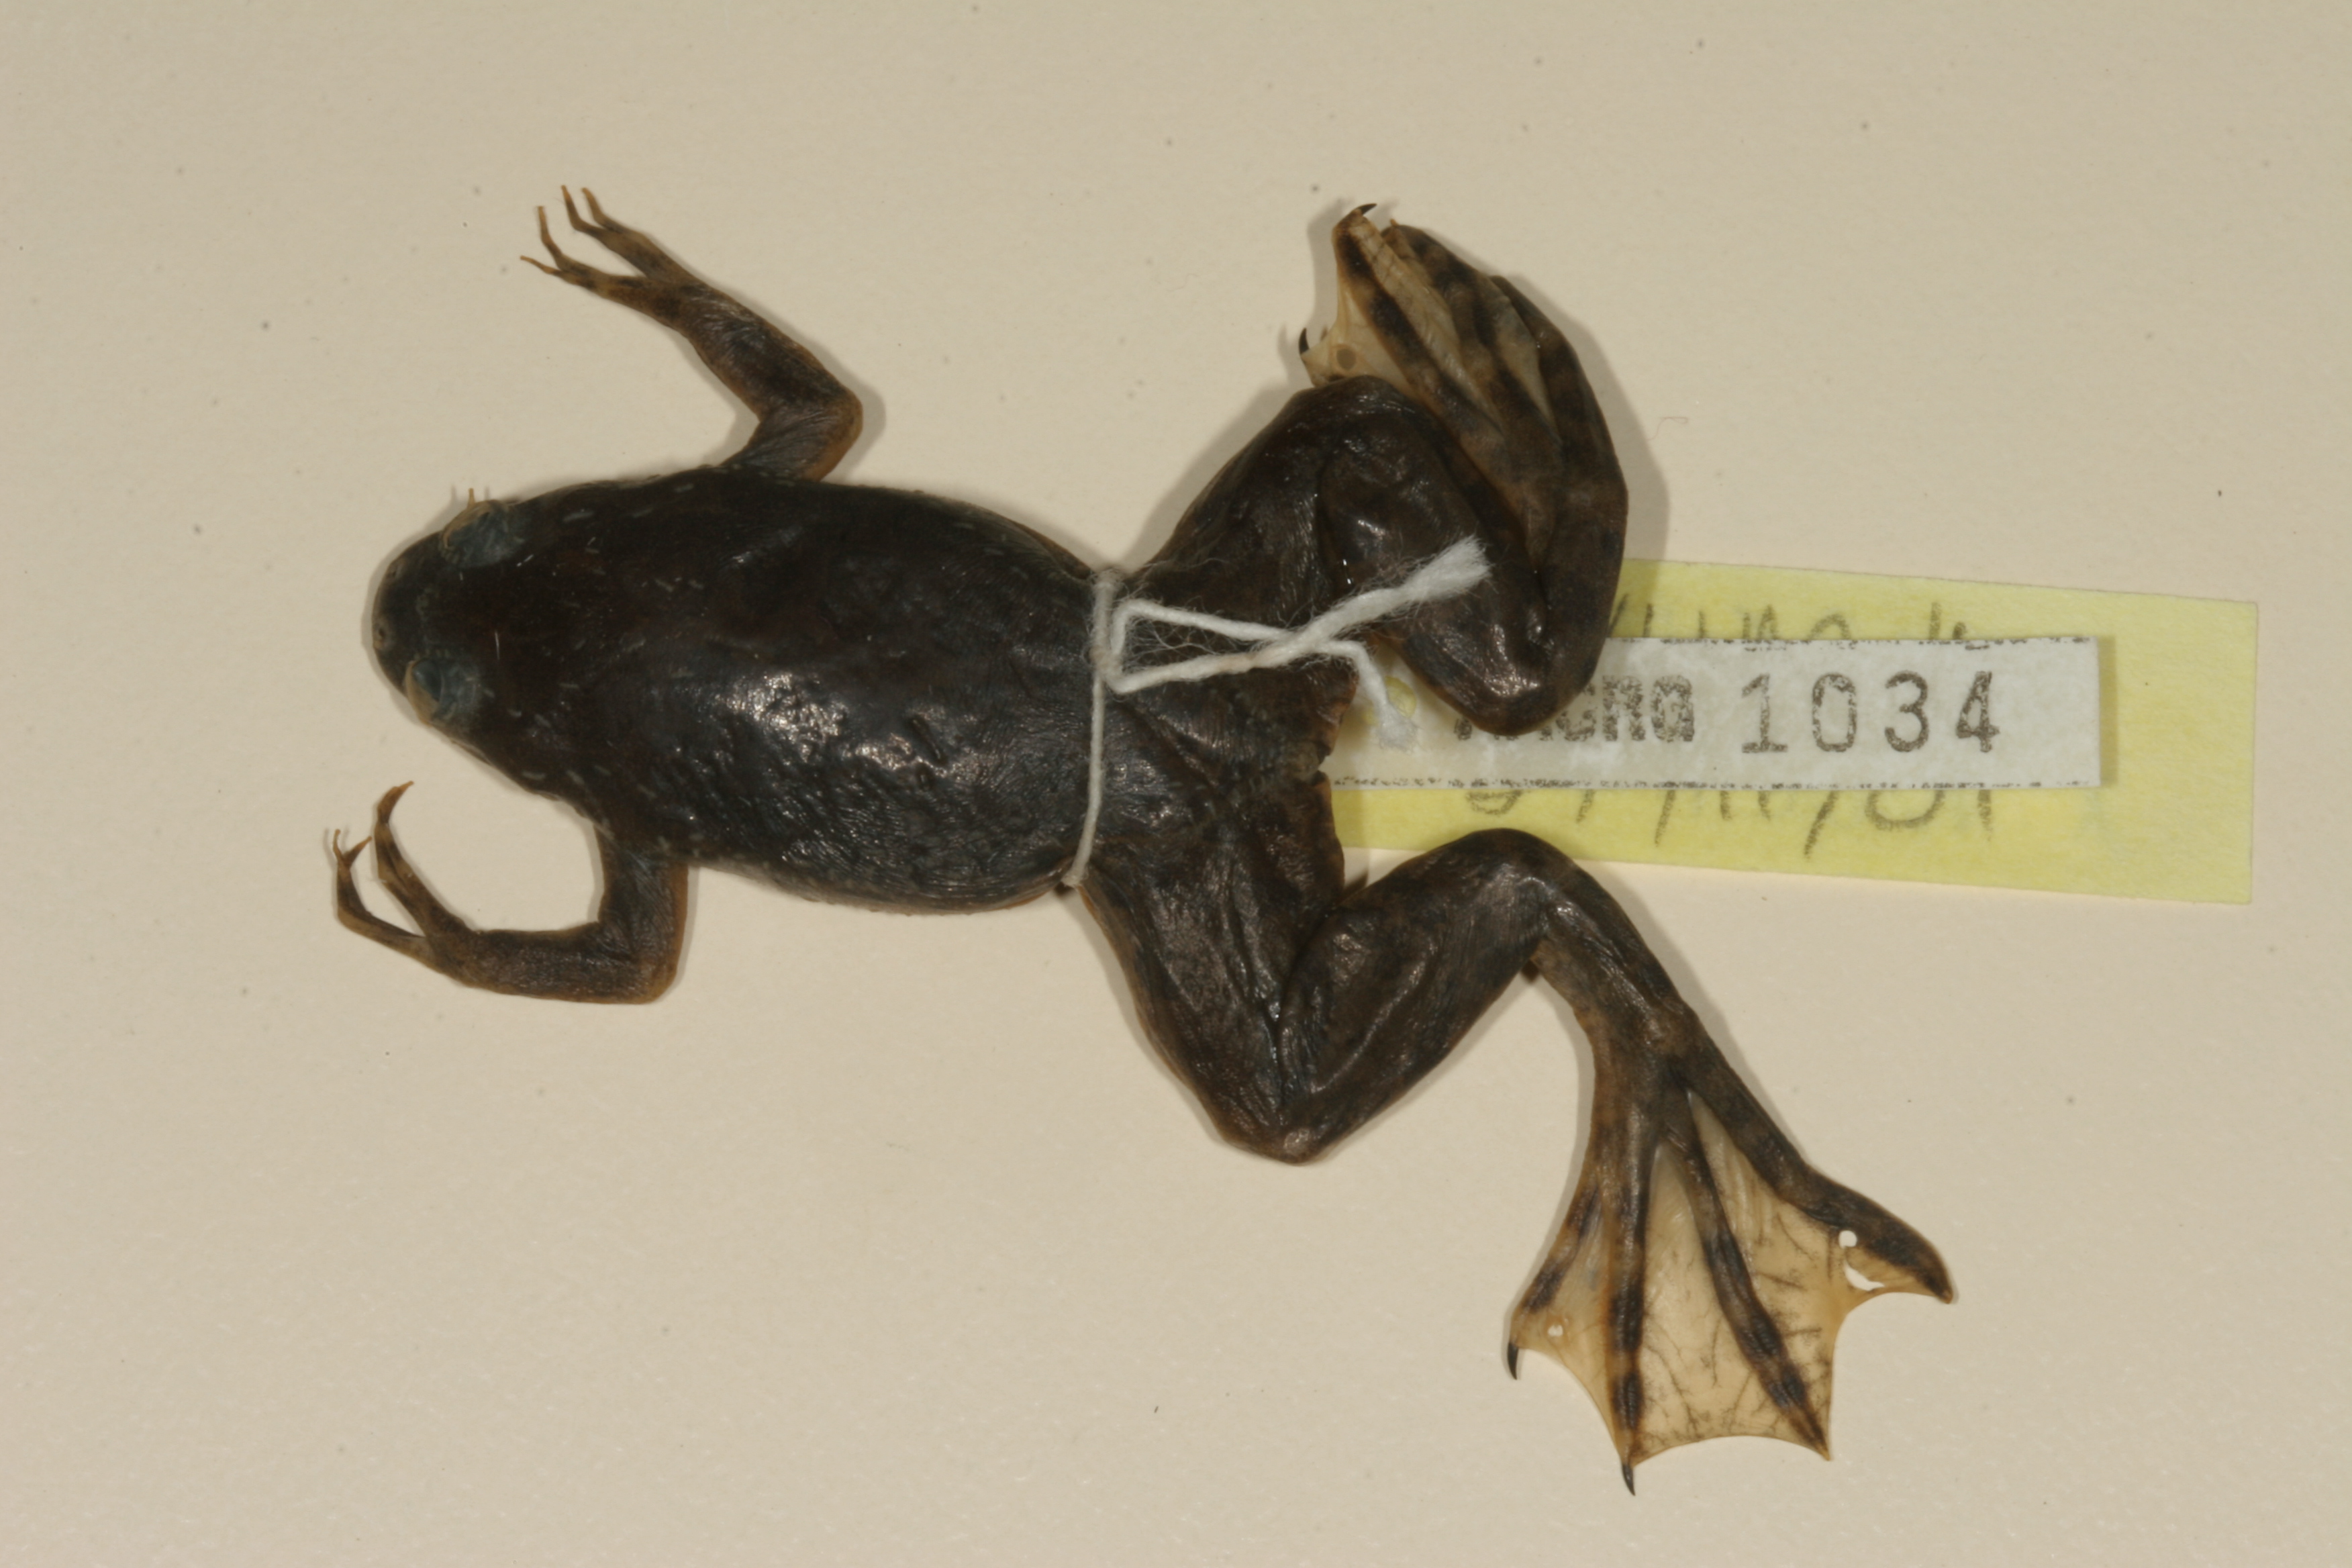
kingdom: Animalia
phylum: Chordata
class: Amphibia
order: Anura
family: Pipidae
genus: Xenopus
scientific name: Xenopus muelleri
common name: Muller's clawed frog
